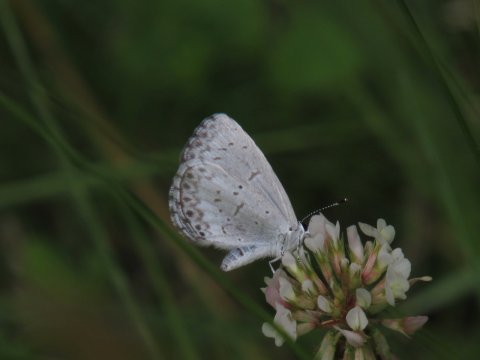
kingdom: Animalia
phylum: Arthropoda
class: Insecta
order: Lepidoptera
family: Lycaenidae
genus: Celastrina
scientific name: Celastrina
